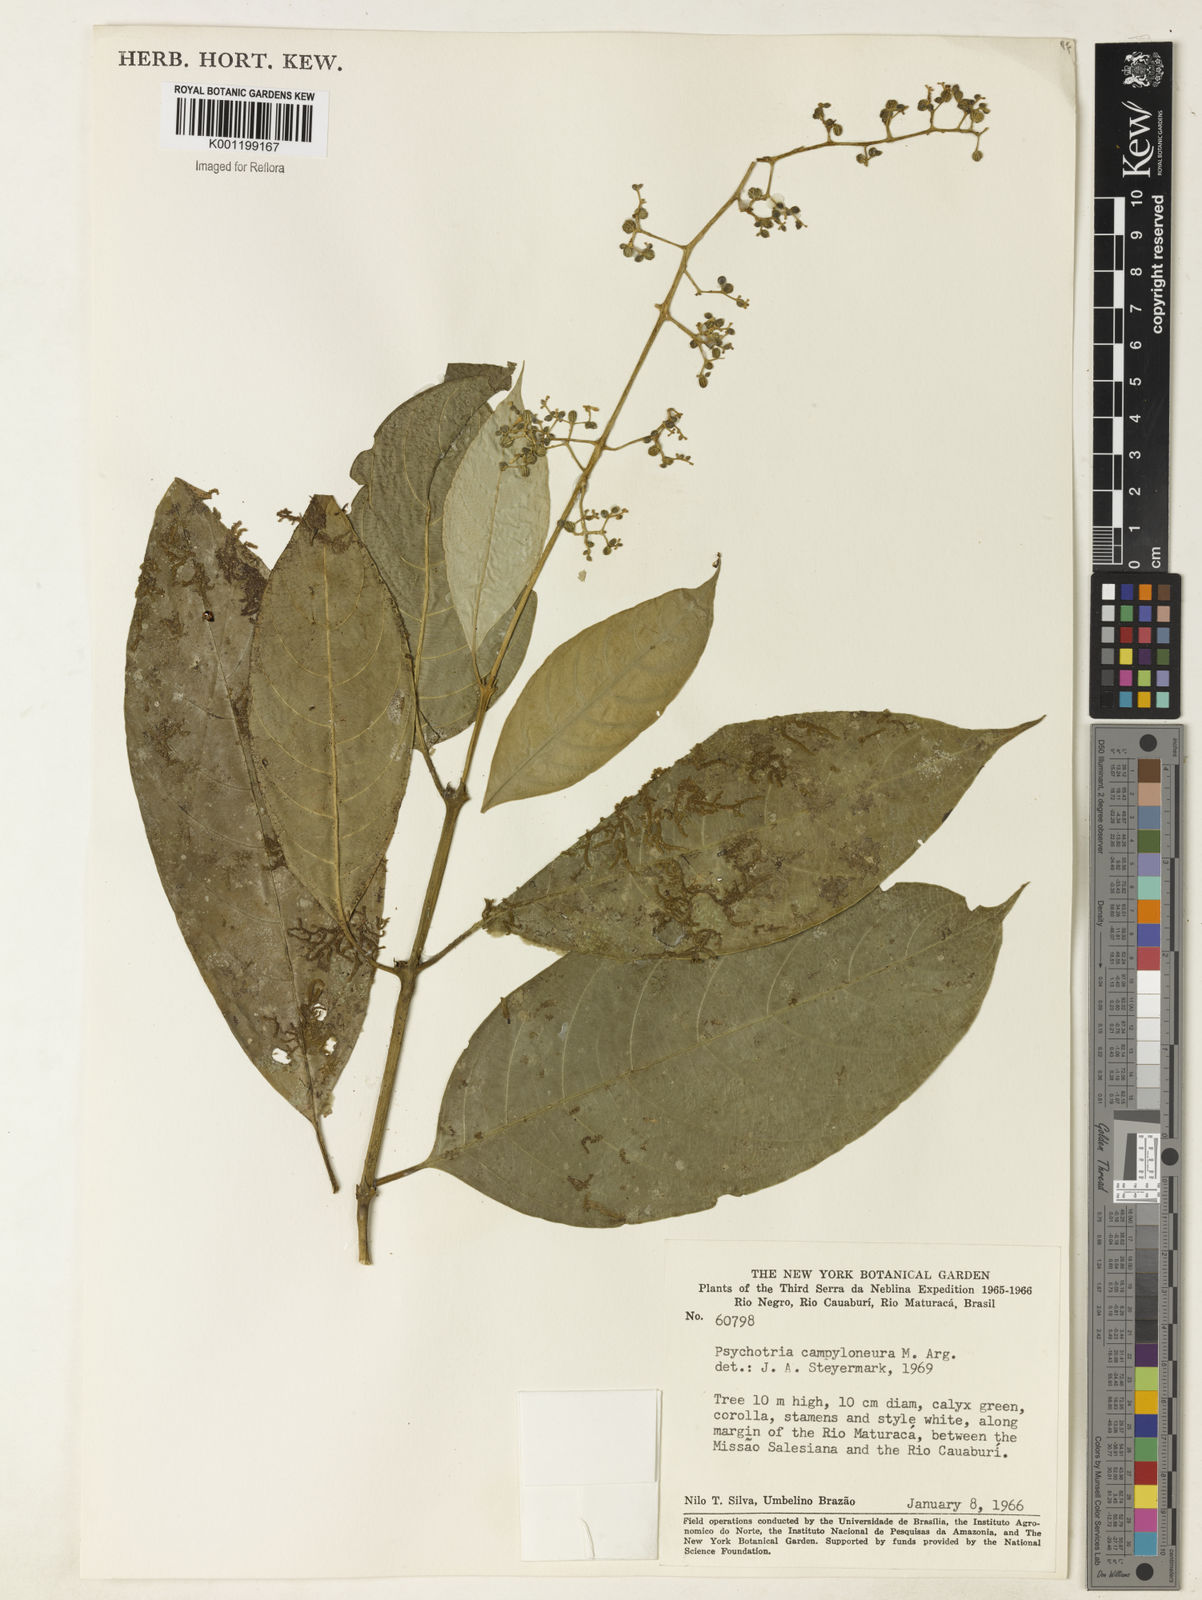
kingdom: Plantae
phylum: Tracheophyta
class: Magnoliopsida
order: Gentianales
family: Rubiaceae
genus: Palicourea
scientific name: Palicourea deflexa
